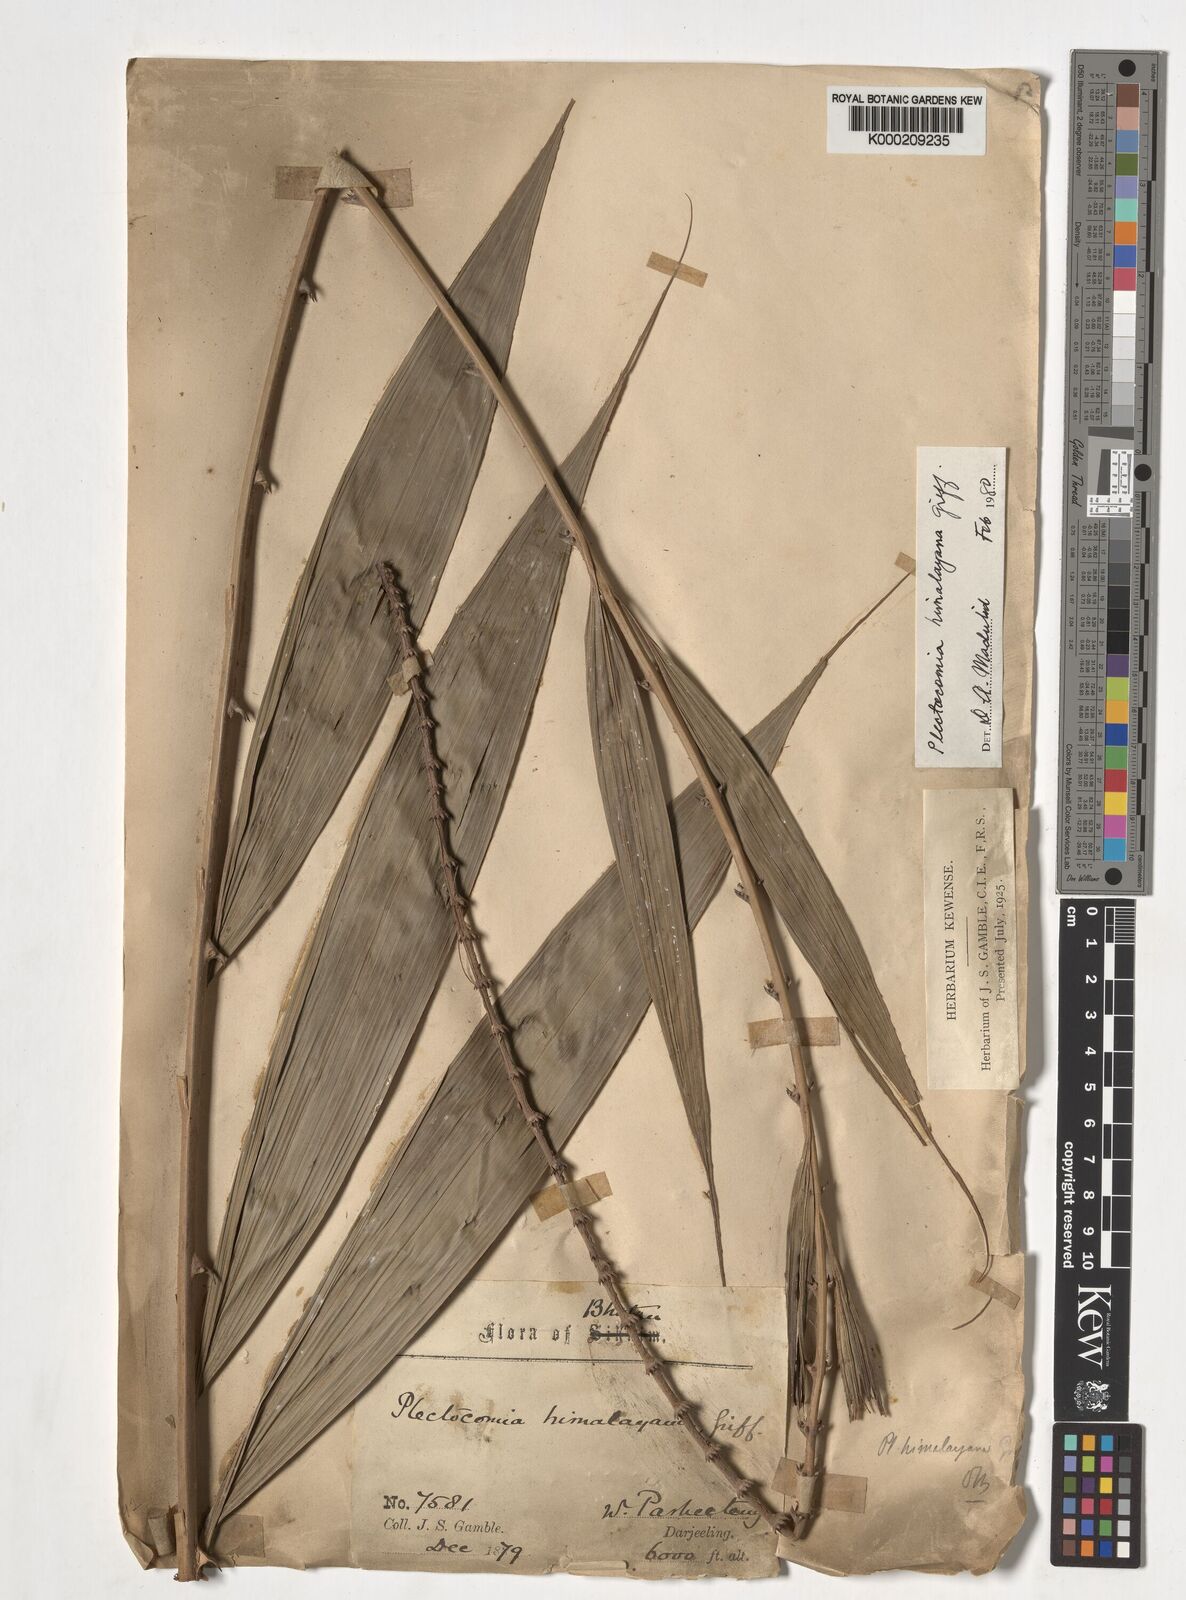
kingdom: Plantae
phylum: Tracheophyta
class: Liliopsida
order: Arecales
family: Arecaceae
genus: Plectocomia
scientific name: Plectocomia himalayana
